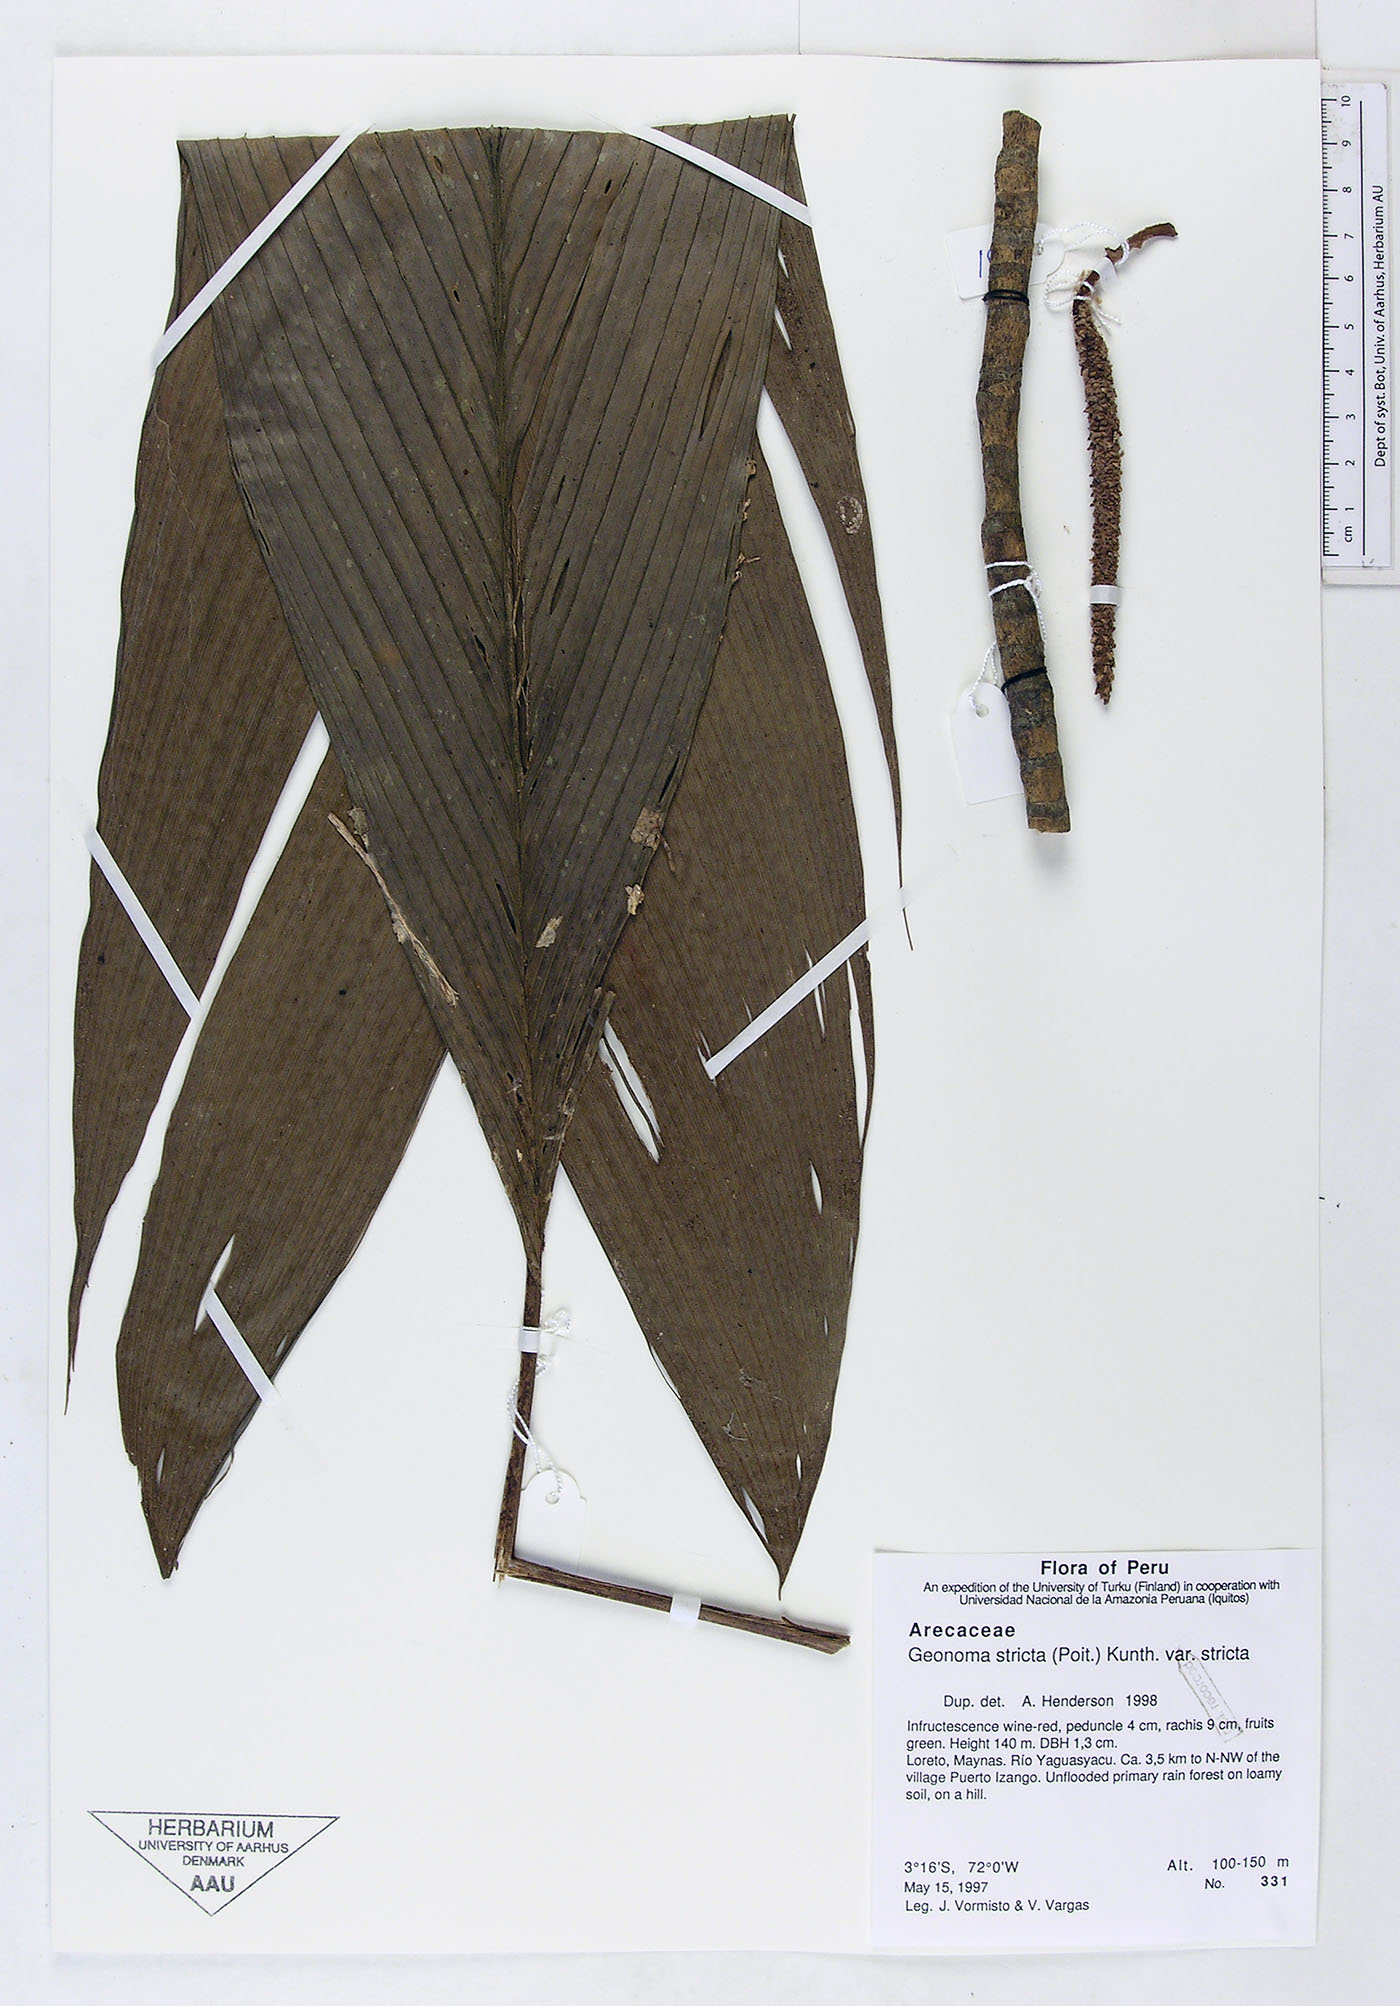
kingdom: Plantae
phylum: Tracheophyta
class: Liliopsida
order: Arecales
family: Arecaceae
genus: Geonoma
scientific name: Geonoma stricta
